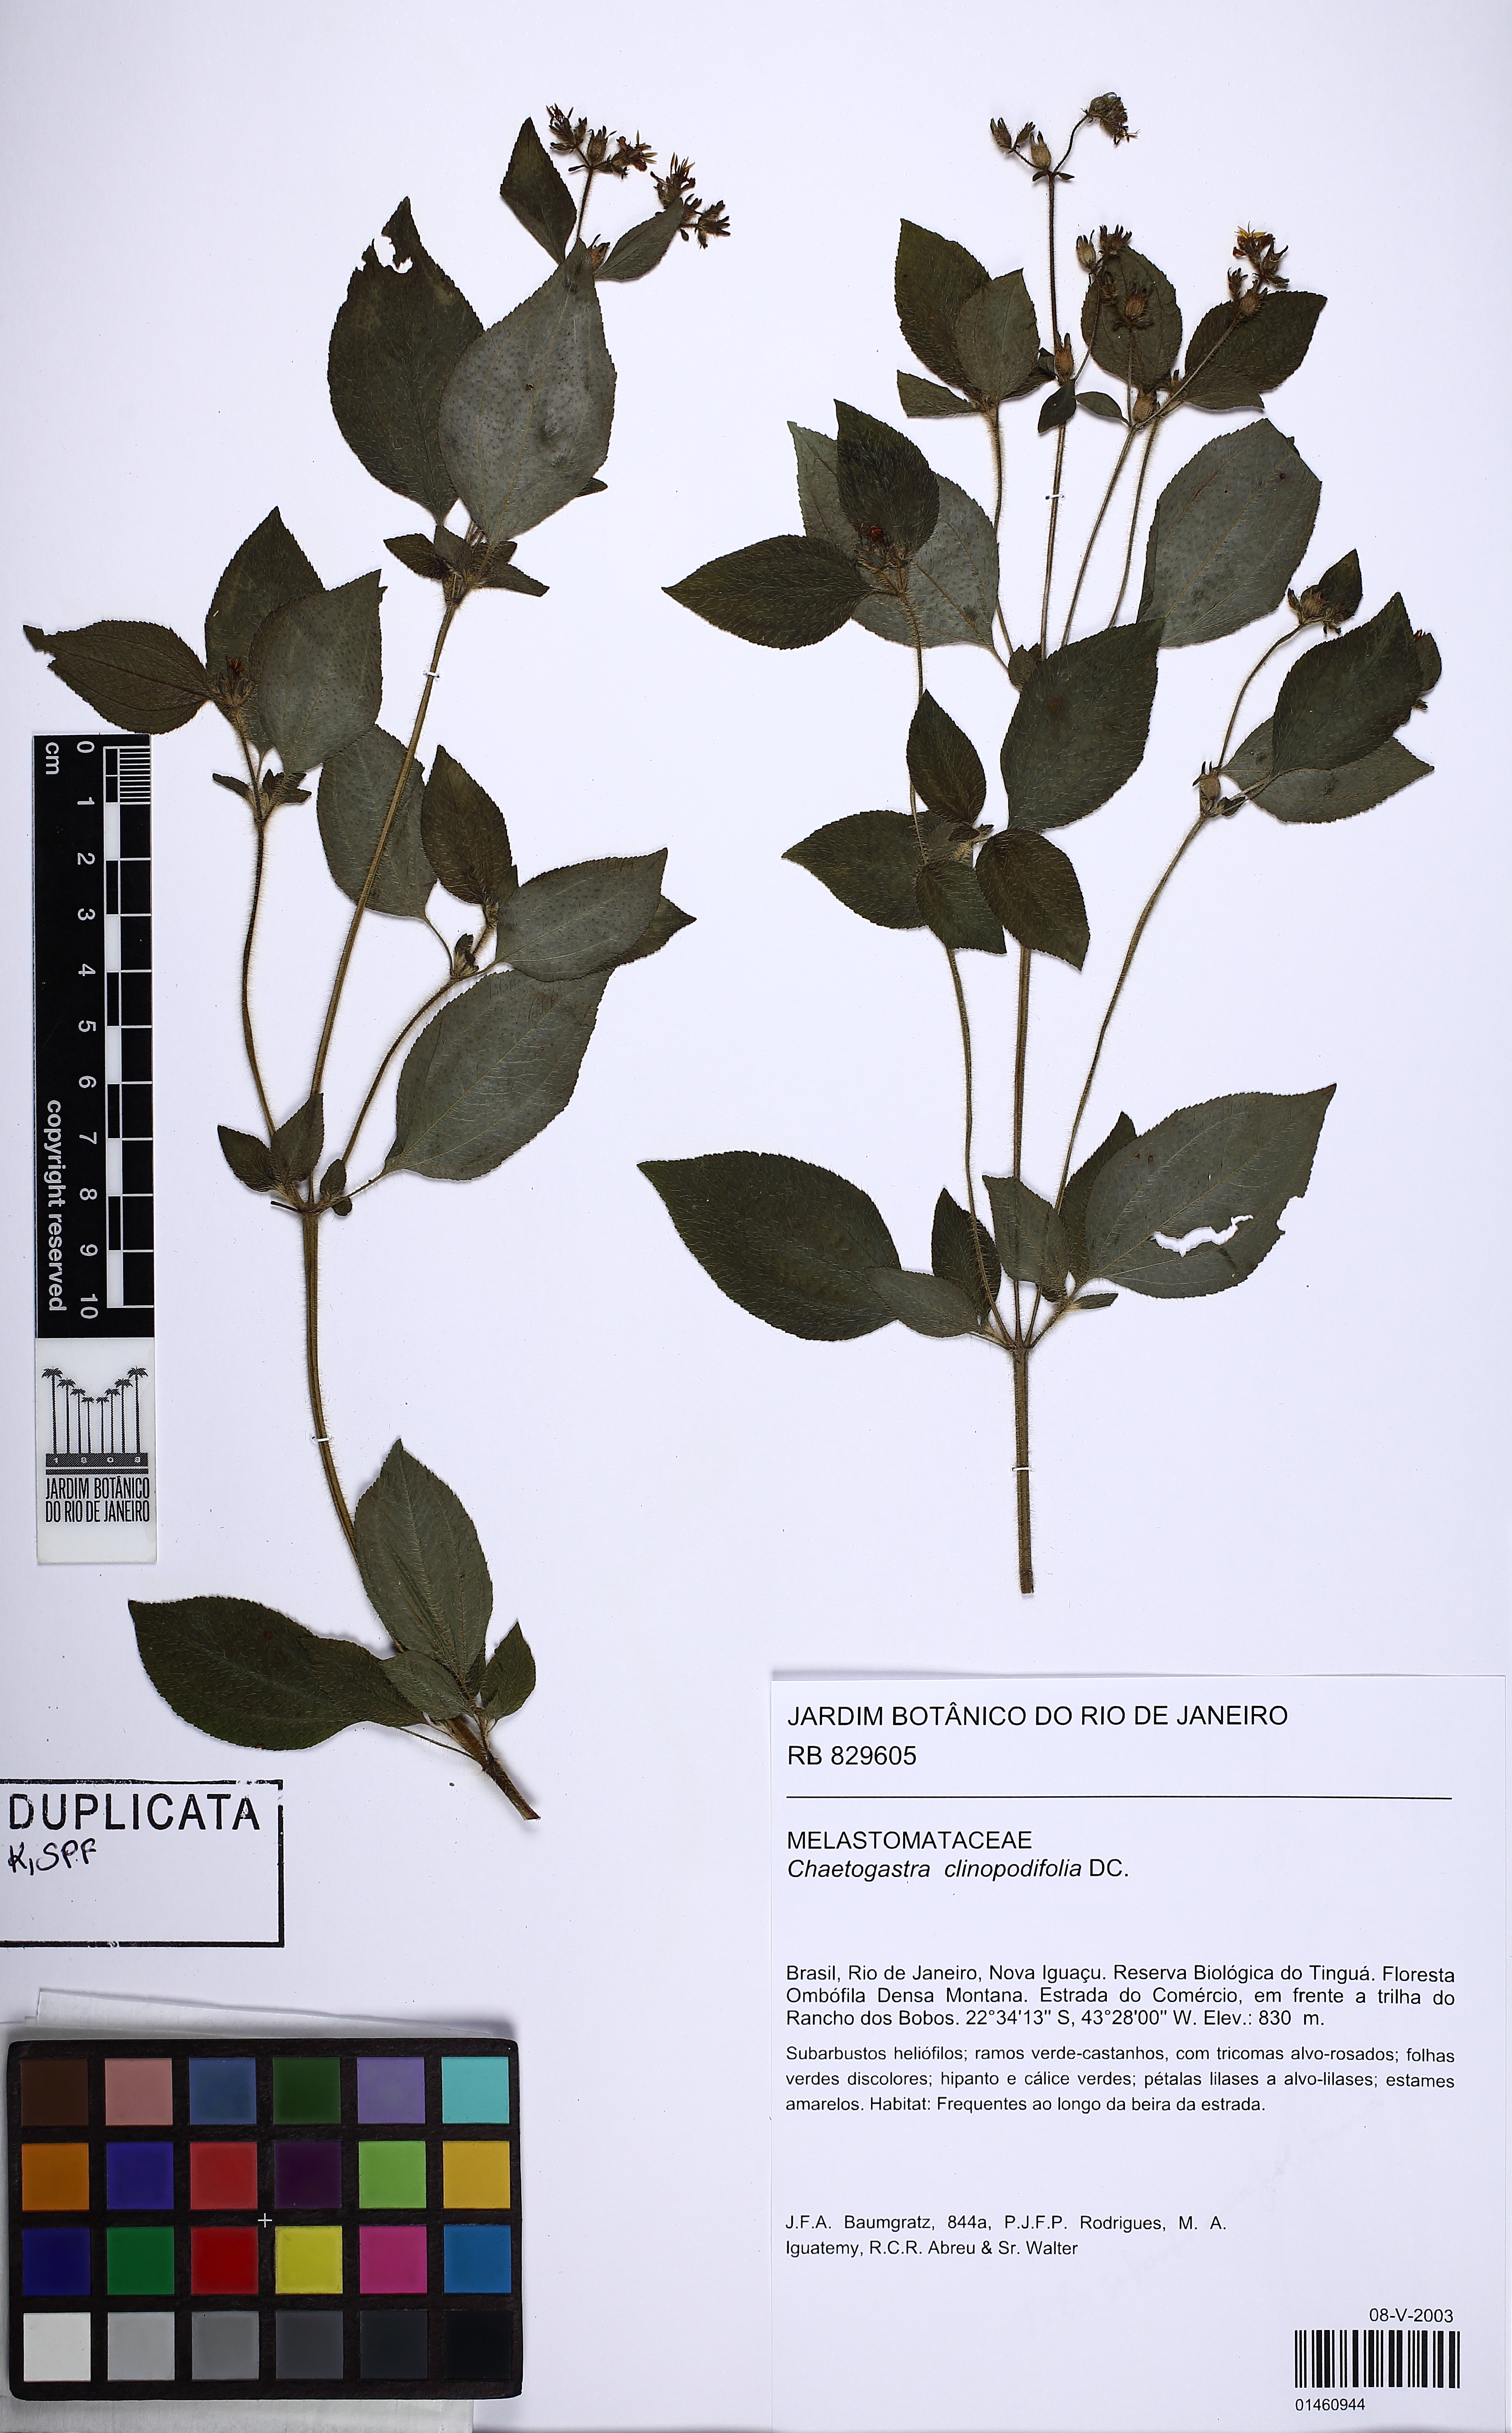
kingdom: Plantae
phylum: Tracheophyta
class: Magnoliopsida
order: Myrtales
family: Melastomataceae
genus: Chaetogastra
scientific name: Chaetogastra clinopodifolia
